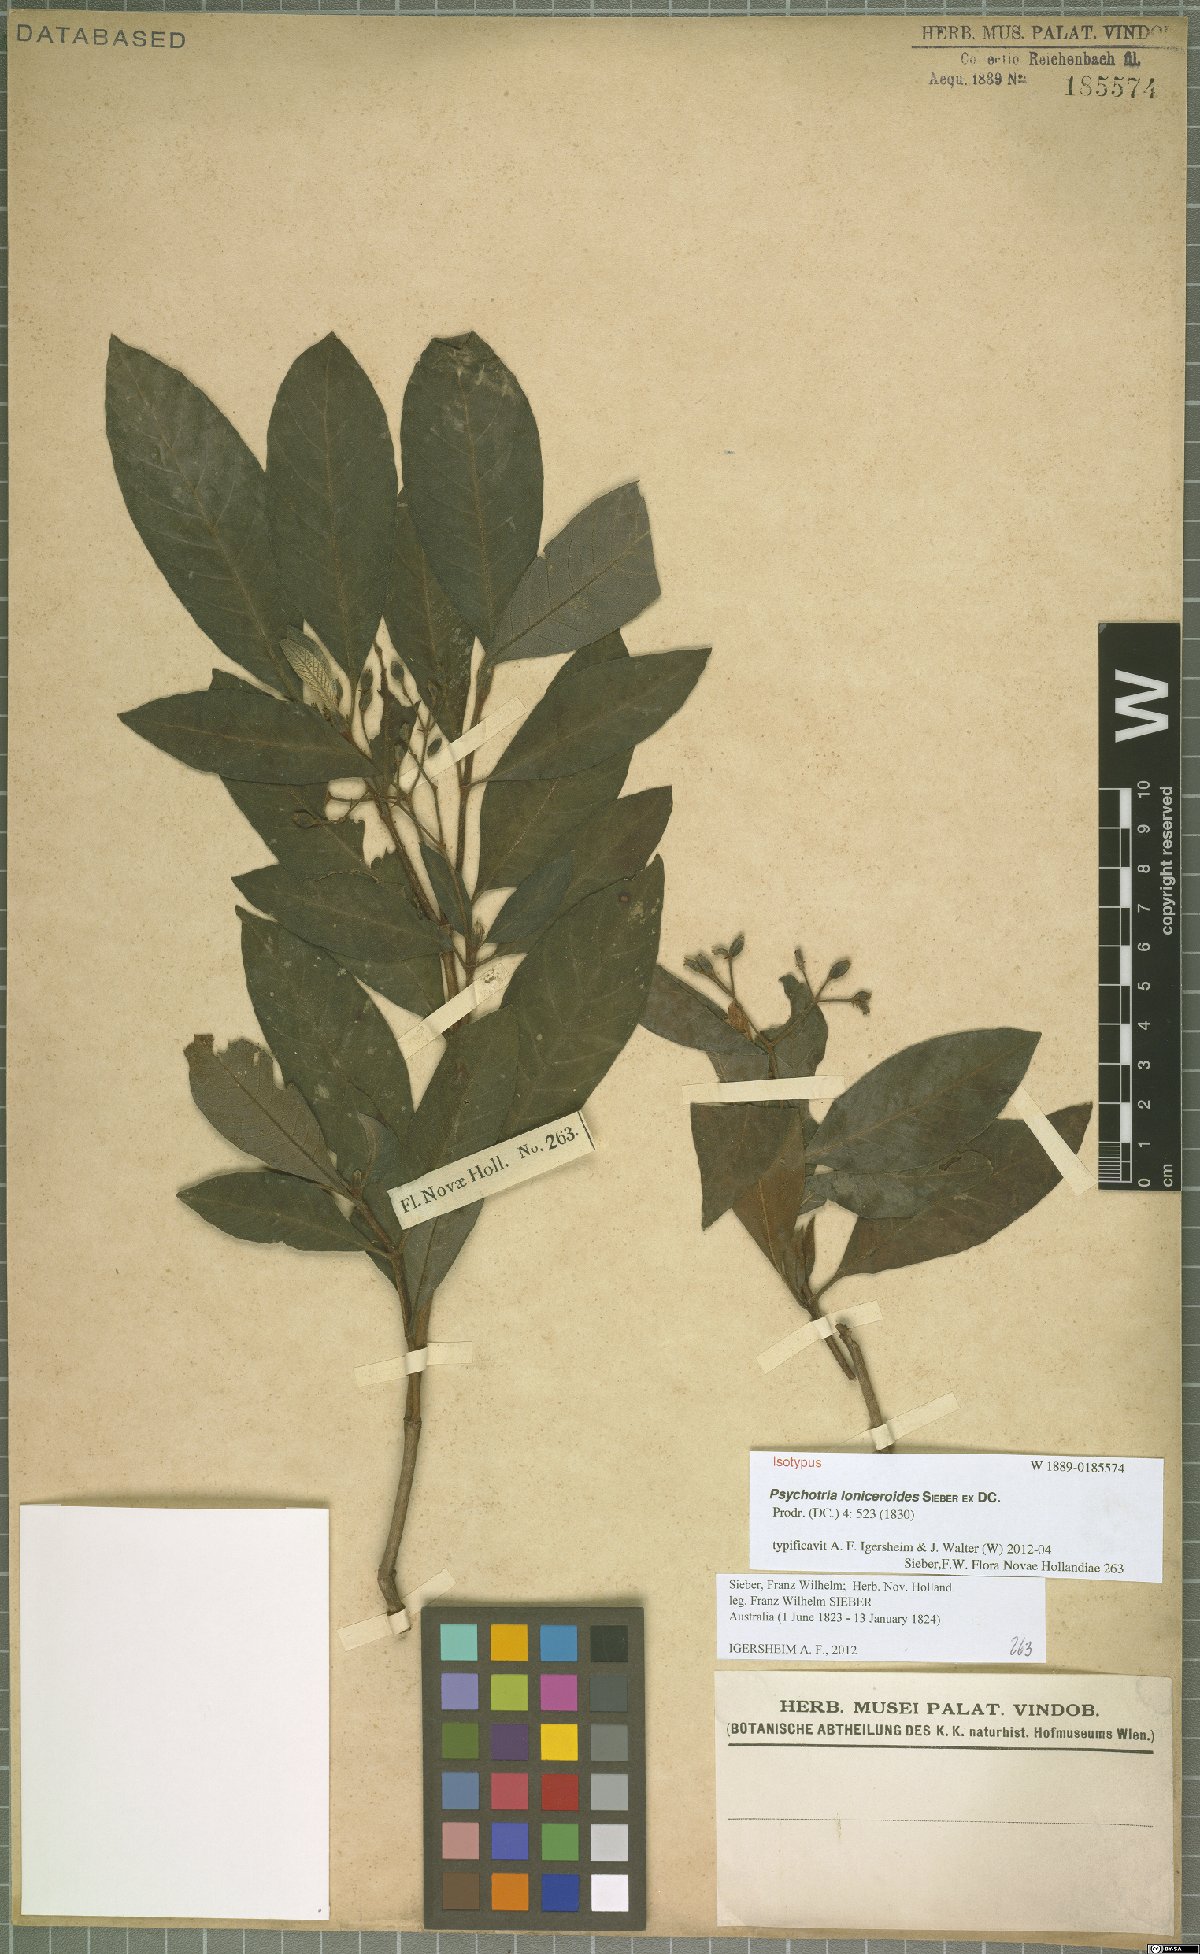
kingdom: Plantae
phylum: Tracheophyta
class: Magnoliopsida
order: Gentianales
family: Rubiaceae
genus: Psychotria
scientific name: Psychotria loniceroides
